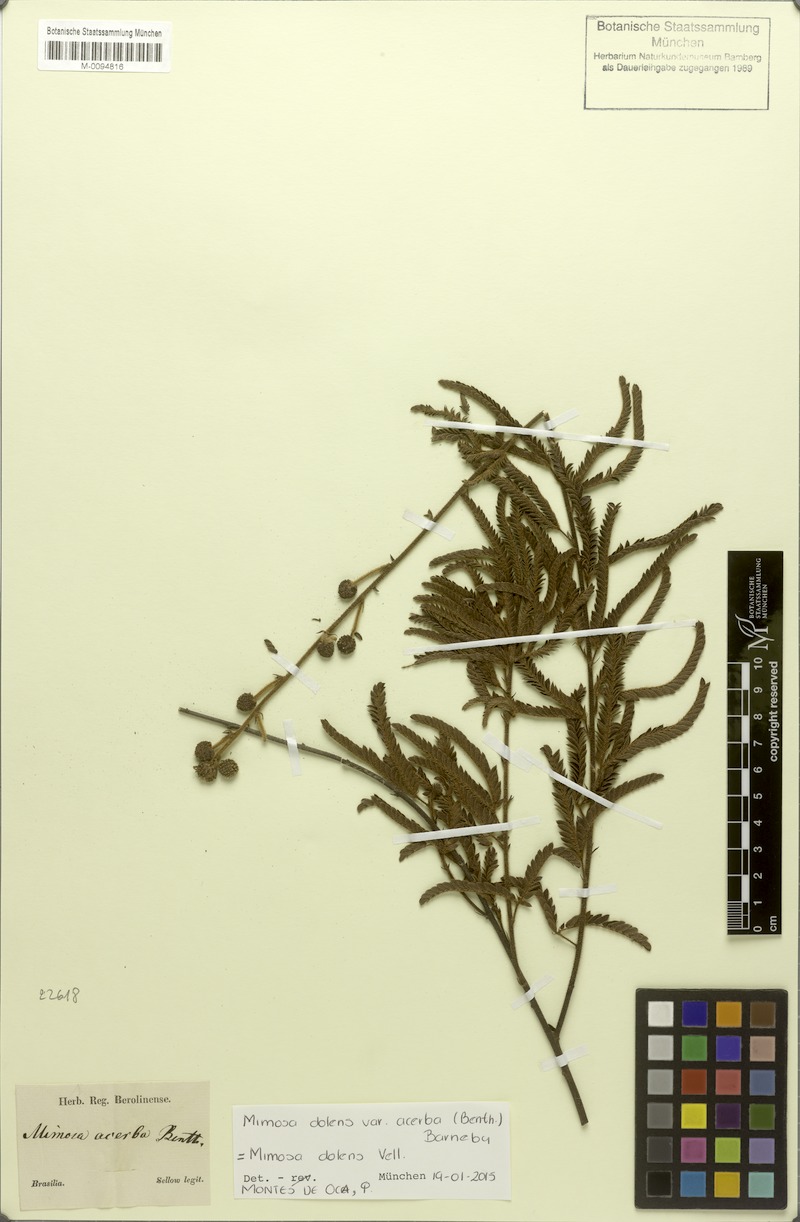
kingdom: Plantae
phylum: Tracheophyta
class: Magnoliopsida
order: Fabales
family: Fabaceae
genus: Mimosa
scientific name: Mimosa dolens
